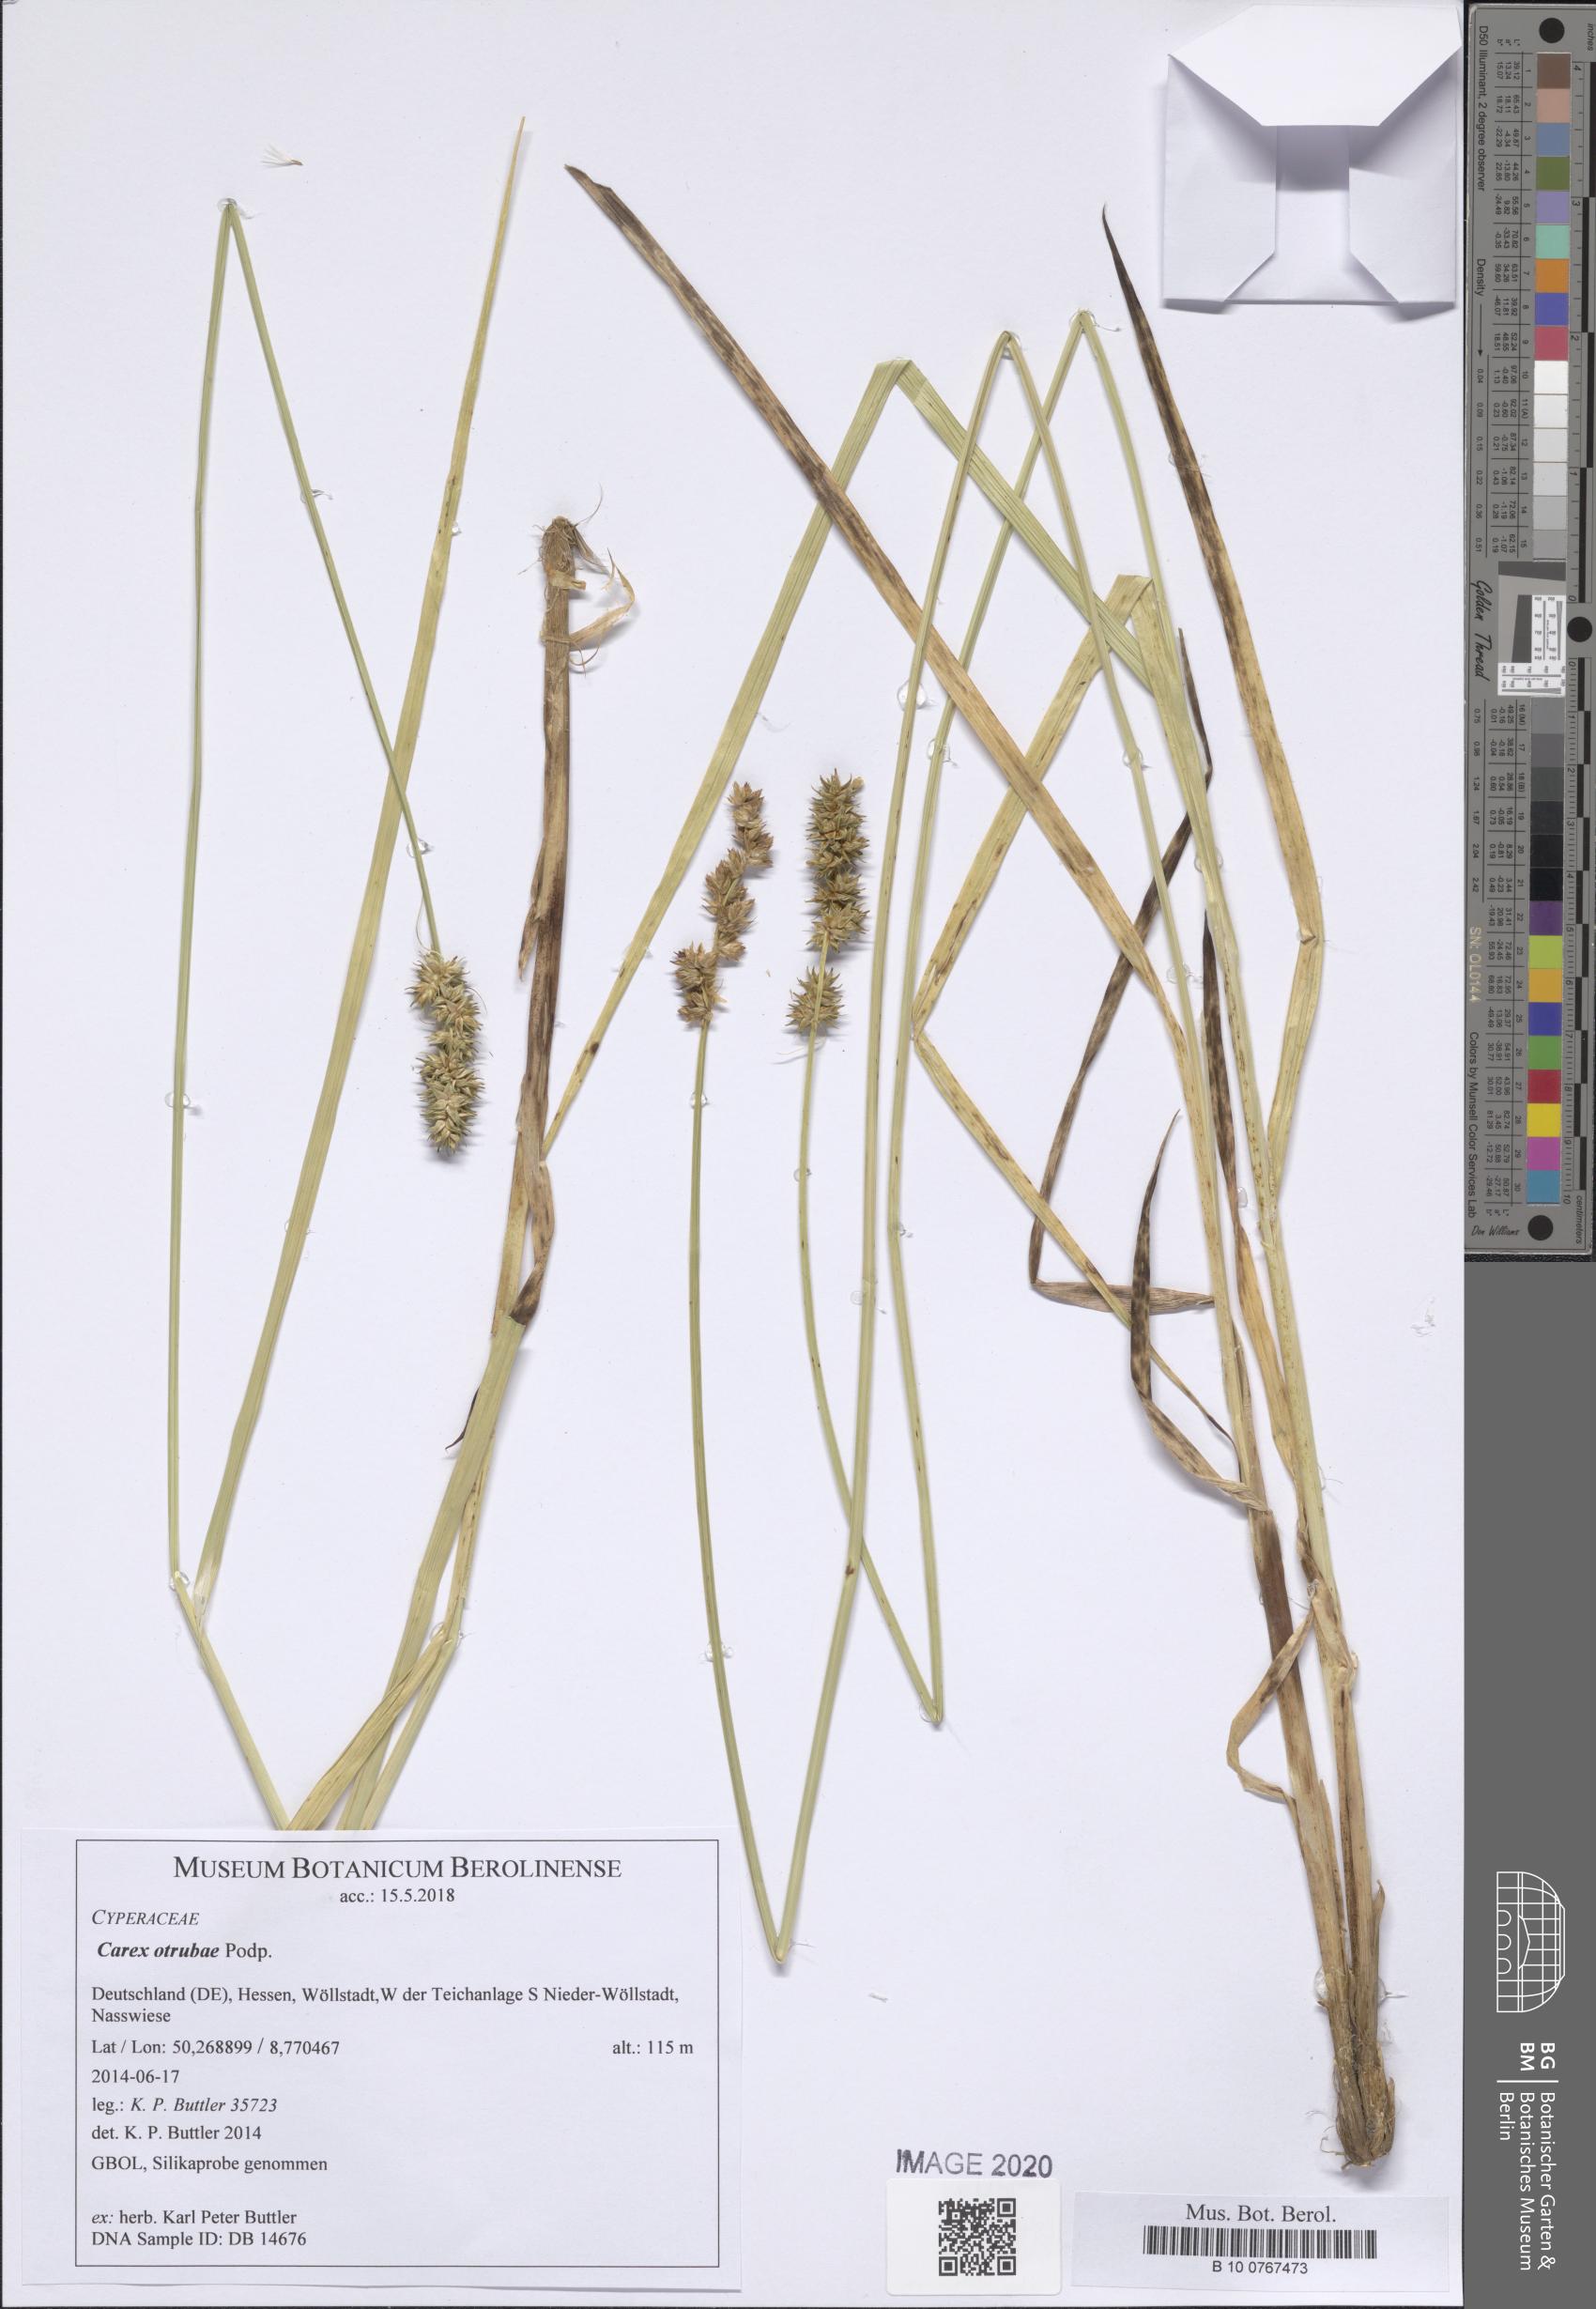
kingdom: Plantae
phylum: Tracheophyta
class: Liliopsida
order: Poales
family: Cyperaceae
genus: Carex
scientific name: Carex otrubae
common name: False fox-sedge
